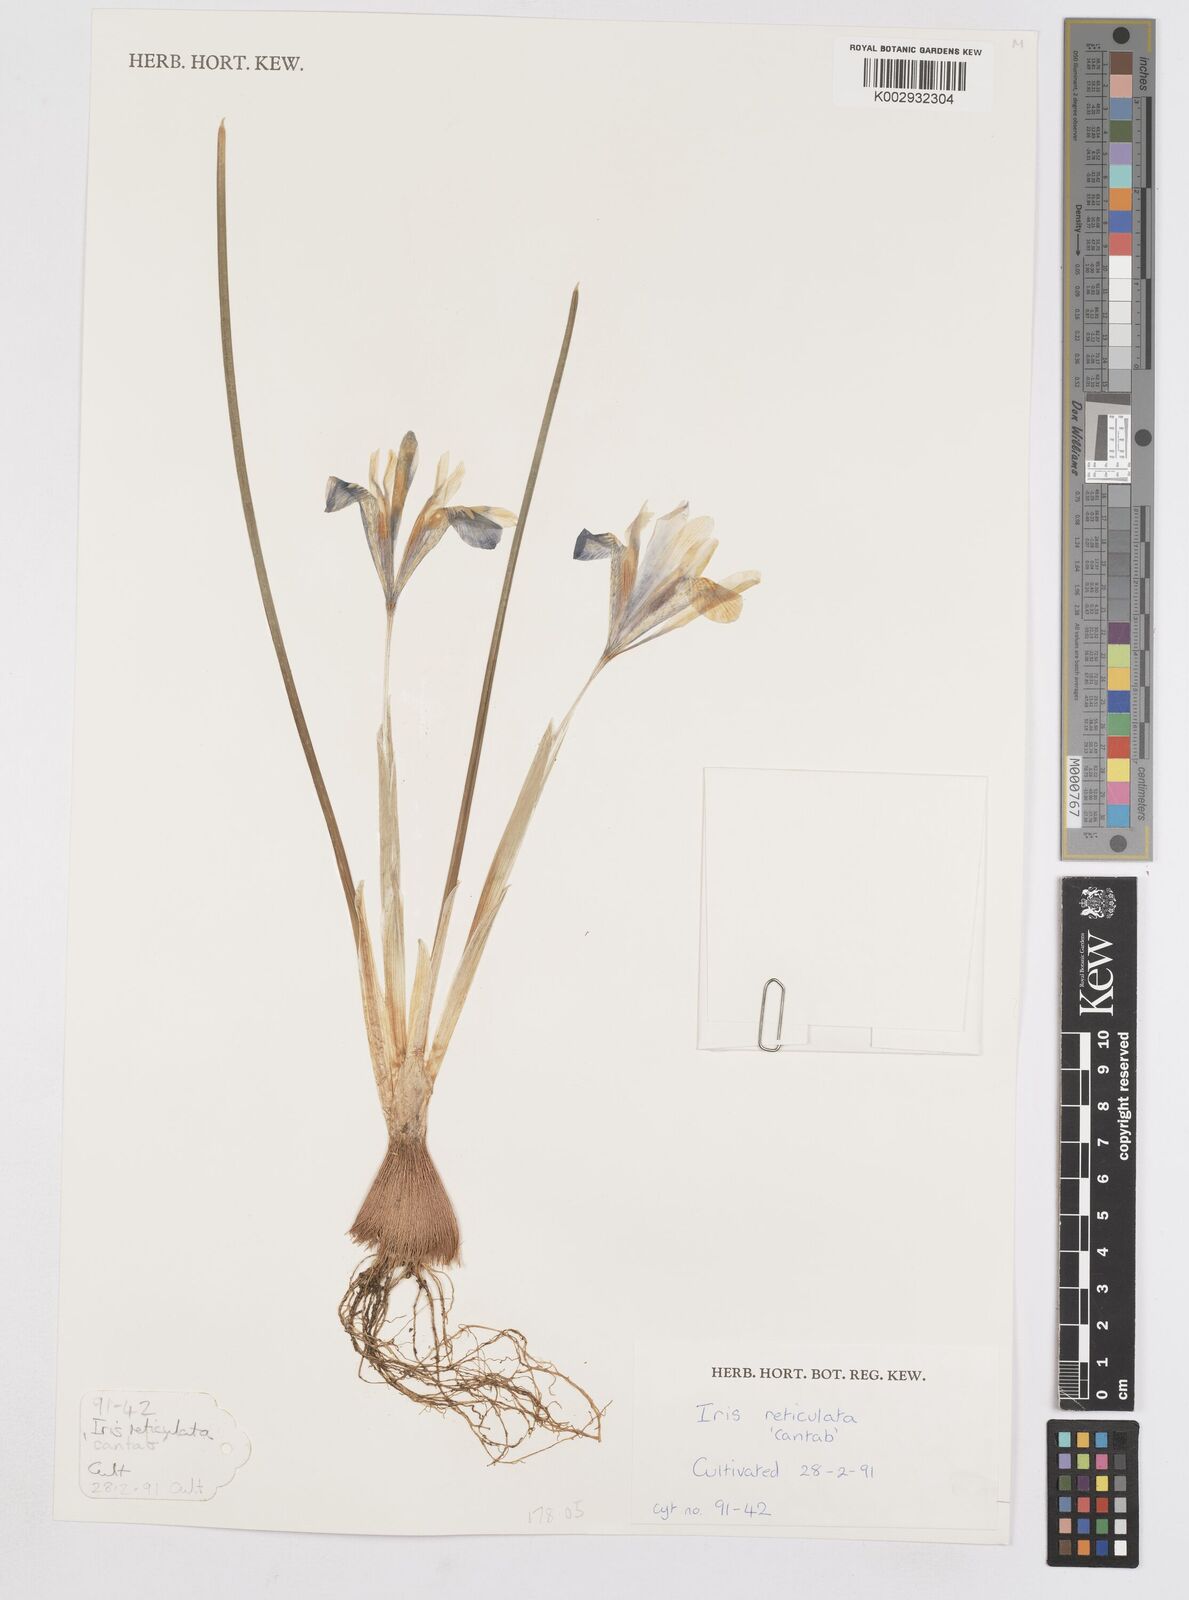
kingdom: Plantae
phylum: Tracheophyta
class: Liliopsida
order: Asparagales
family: Iridaceae
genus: Iris
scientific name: Iris reticulata
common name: Netted iris
